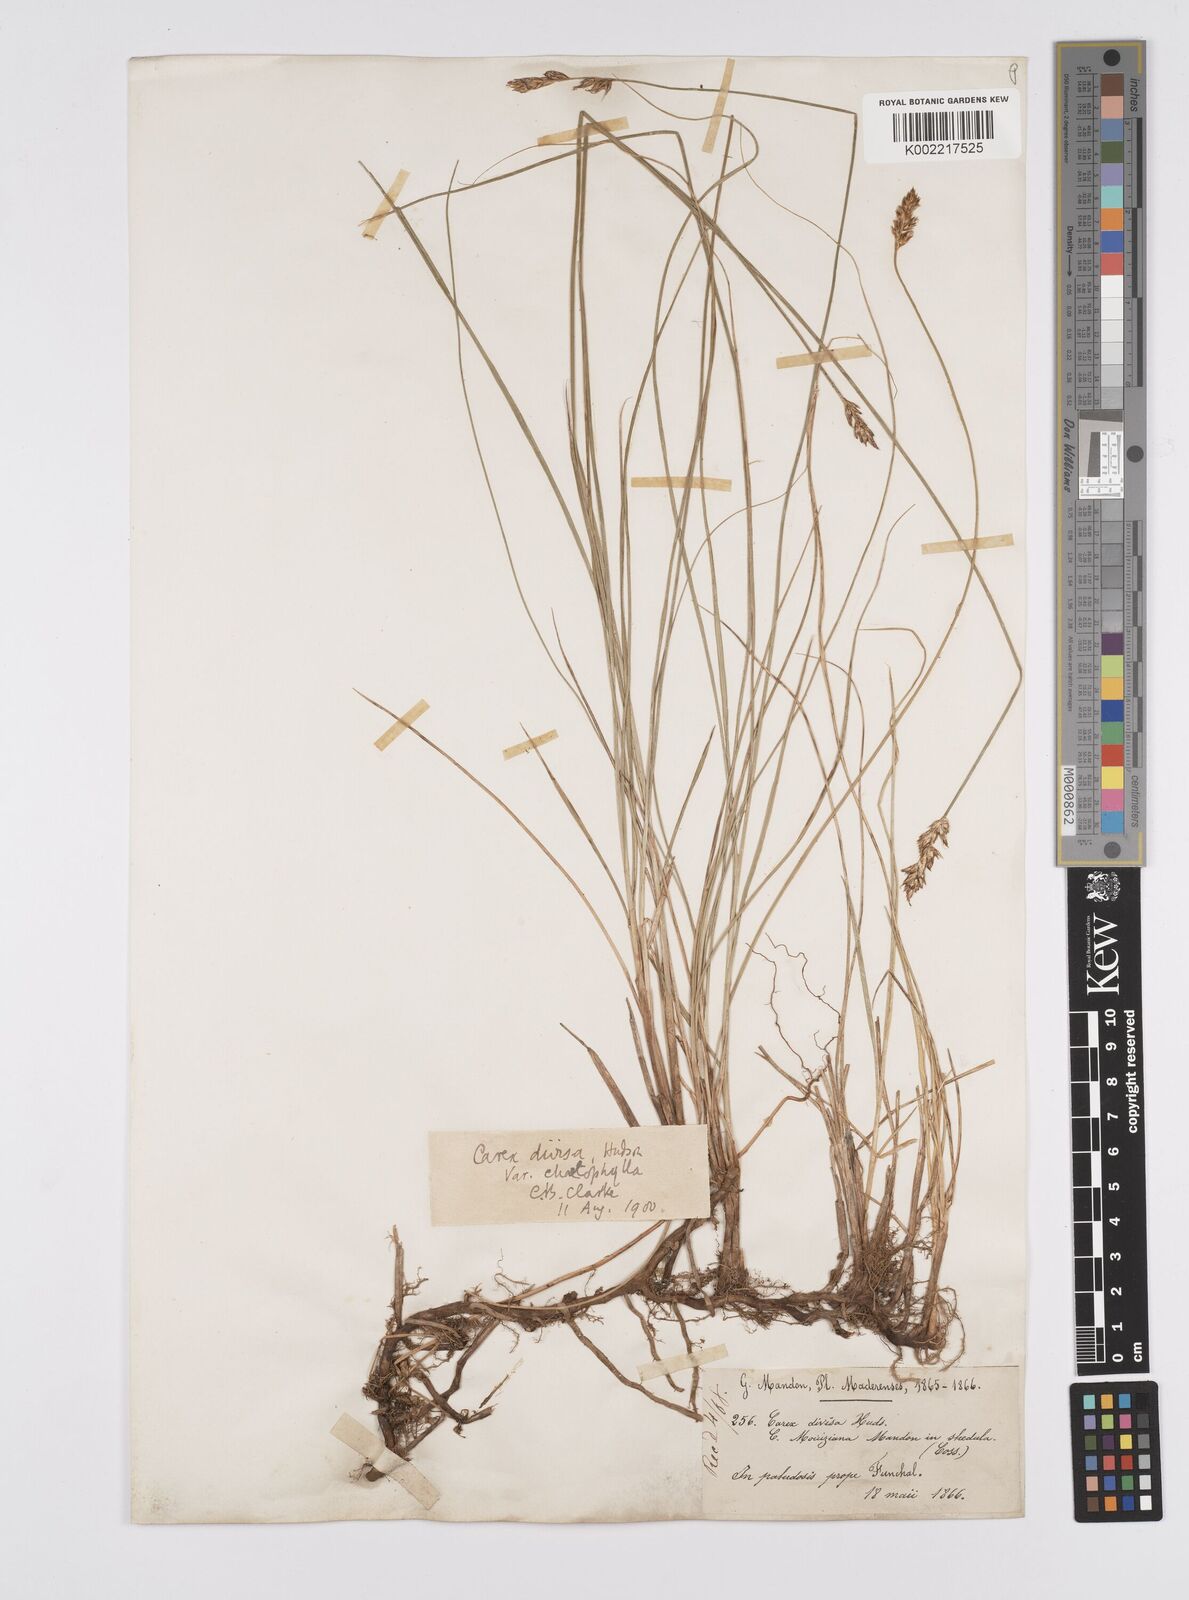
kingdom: Plantae
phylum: Tracheophyta
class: Liliopsida
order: Poales
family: Cyperaceae
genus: Carex
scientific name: Carex divisa
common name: Divided sedge
